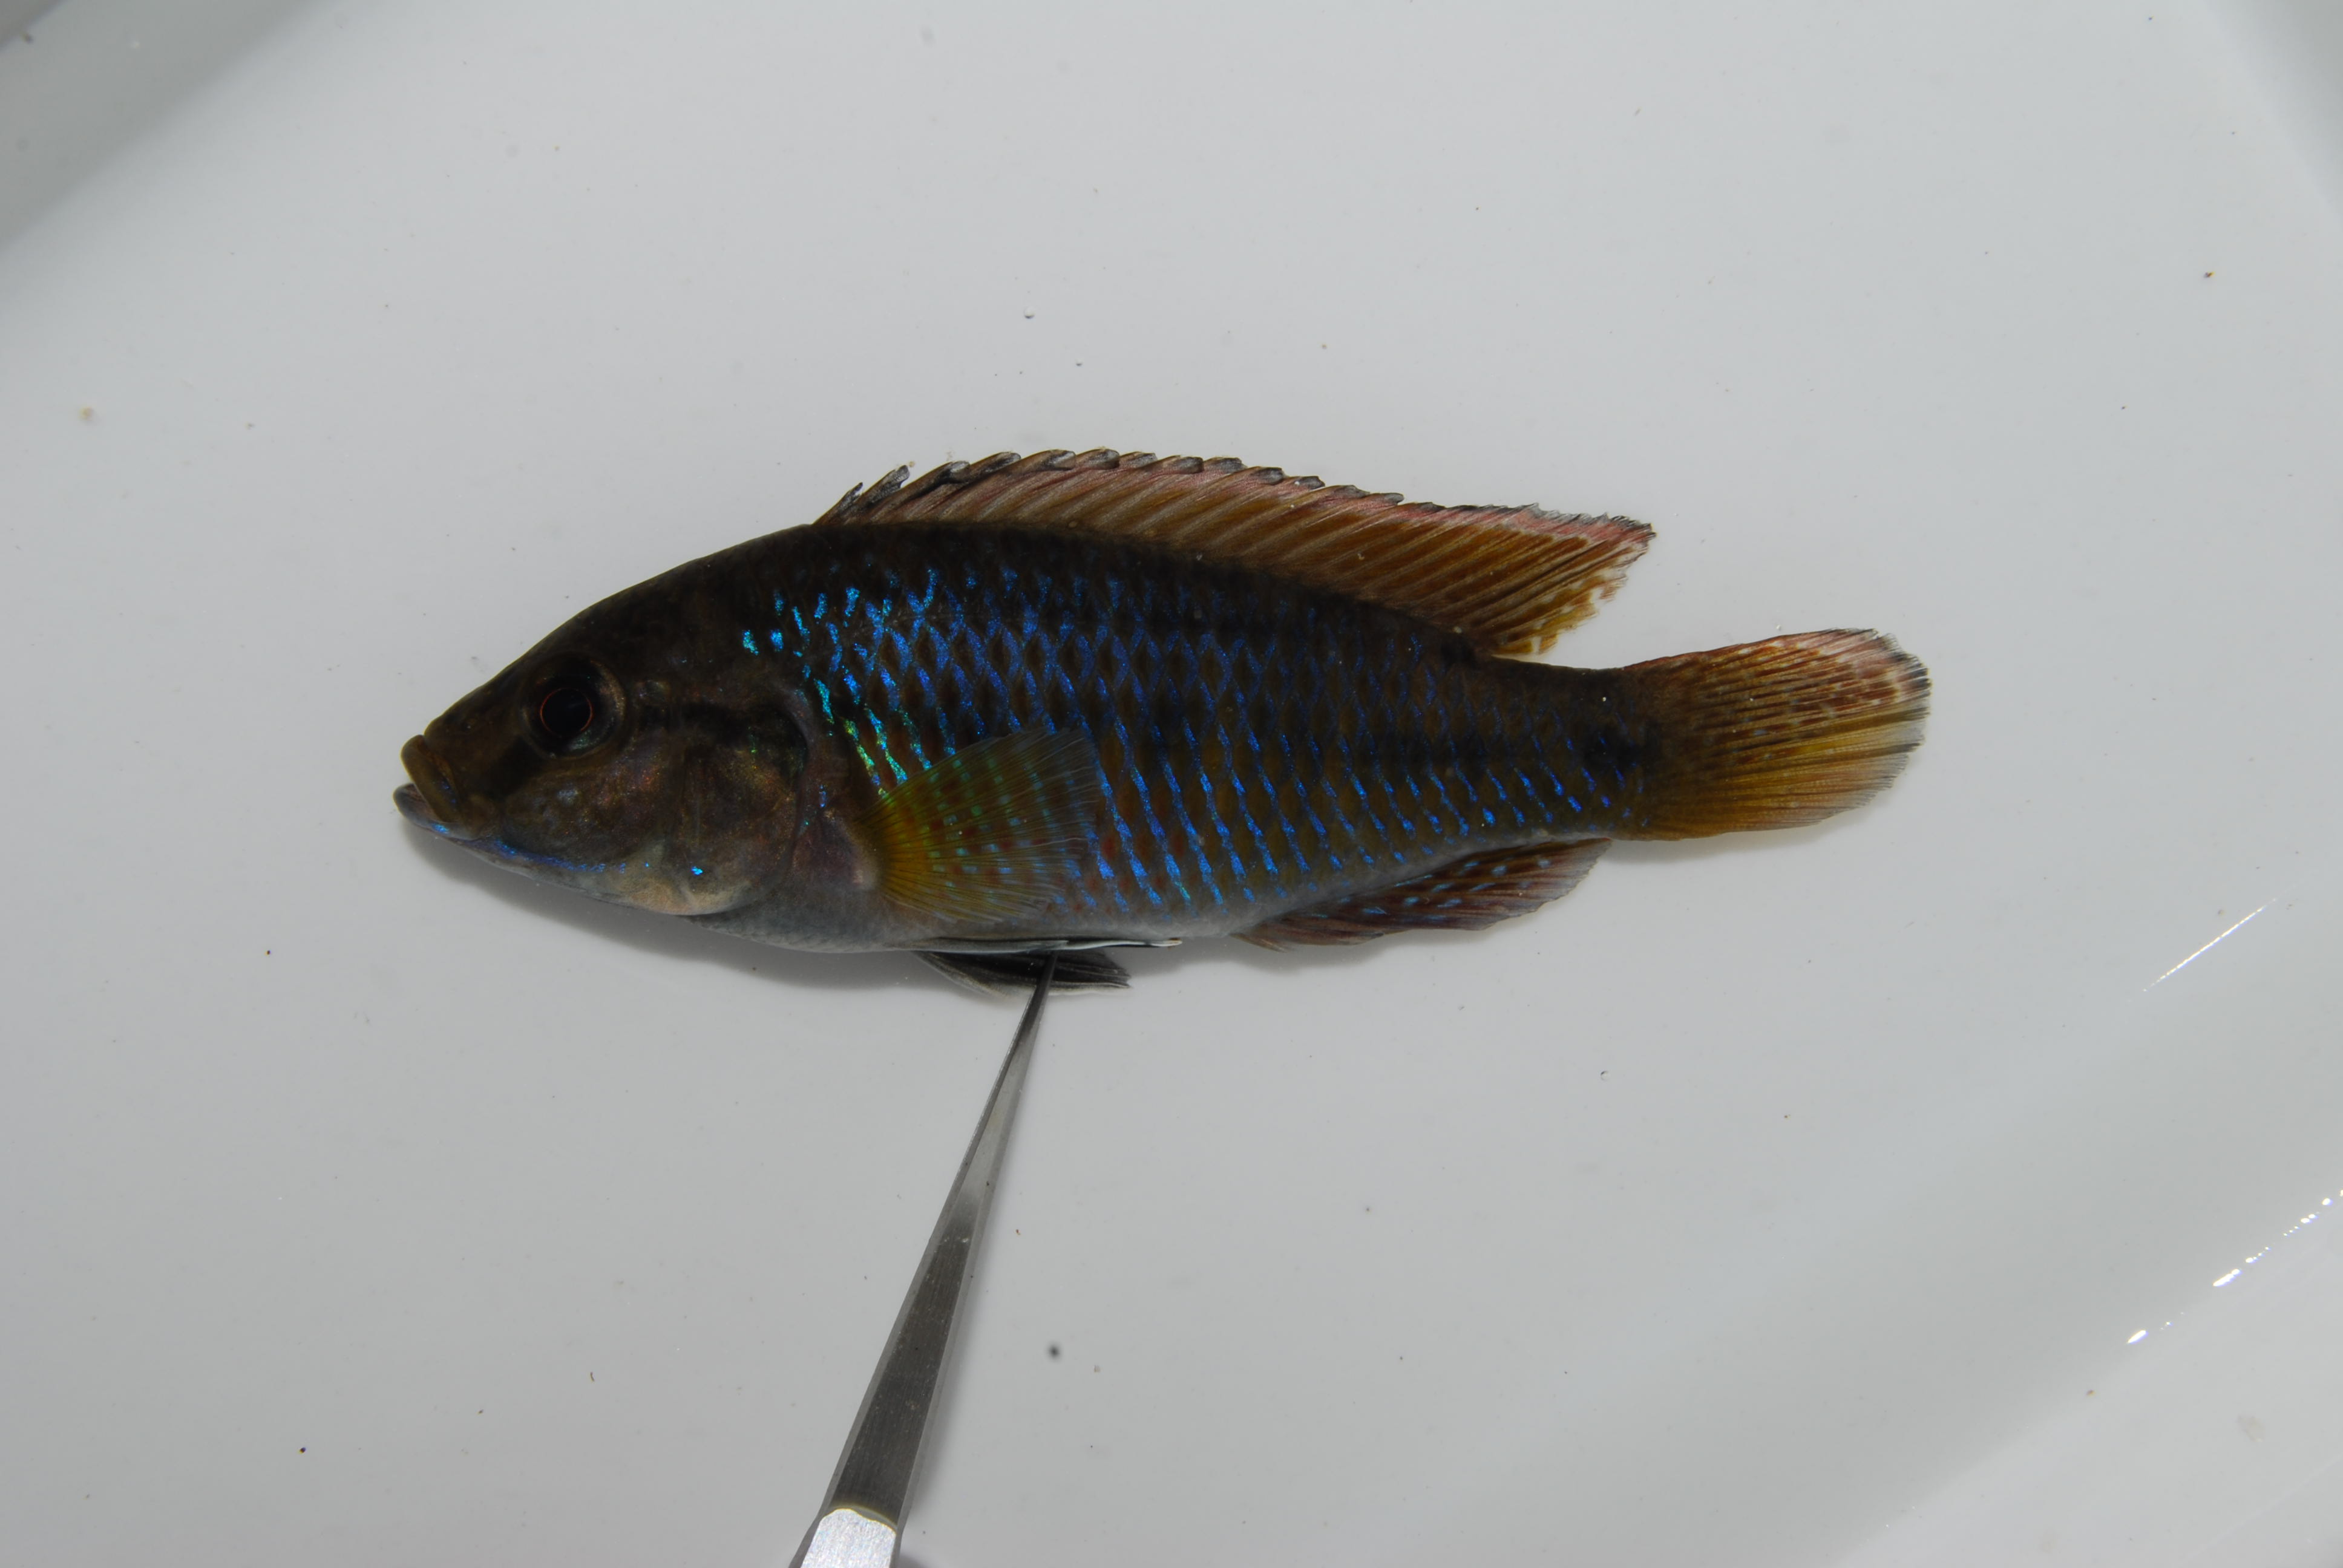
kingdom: Animalia
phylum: Chordata
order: Perciformes
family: Cichlidae
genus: Pseudocrenilabrus
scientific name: Pseudocrenilabrus philander
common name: Southern mouthbrooder
